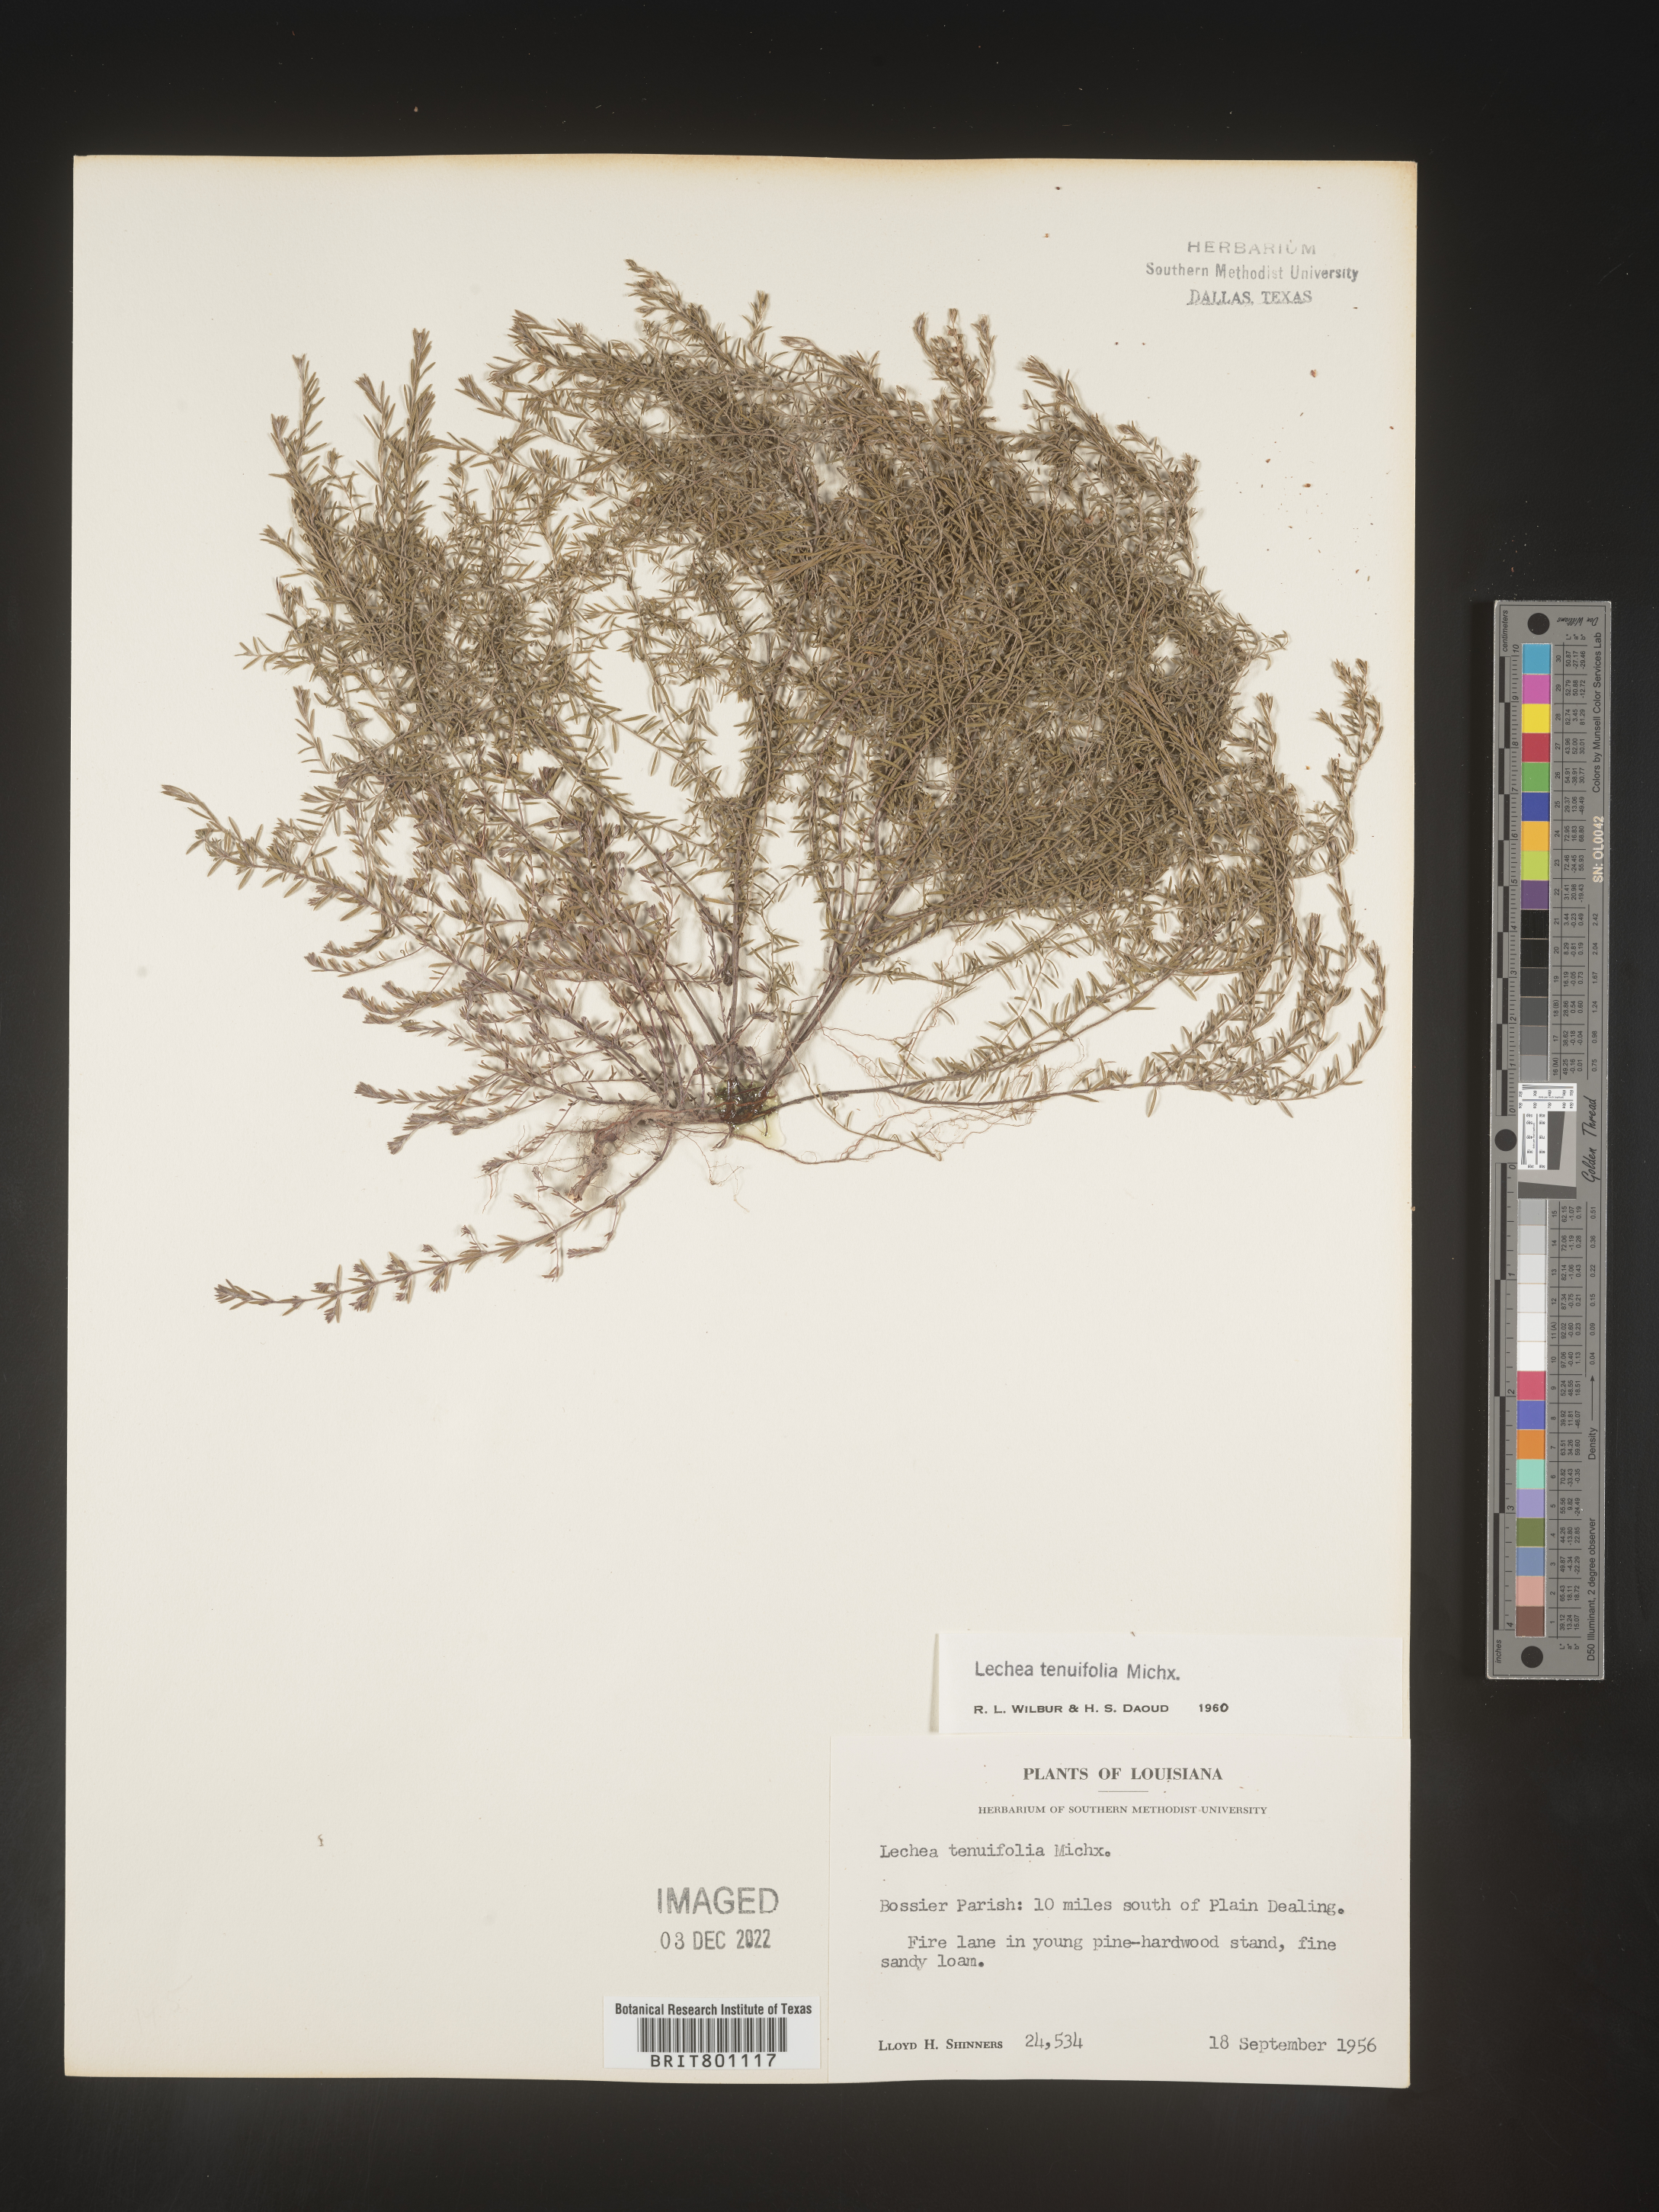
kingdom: Plantae
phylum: Tracheophyta
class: Magnoliopsida
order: Malvales
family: Cistaceae
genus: Lechea
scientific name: Lechea tenuifolia
